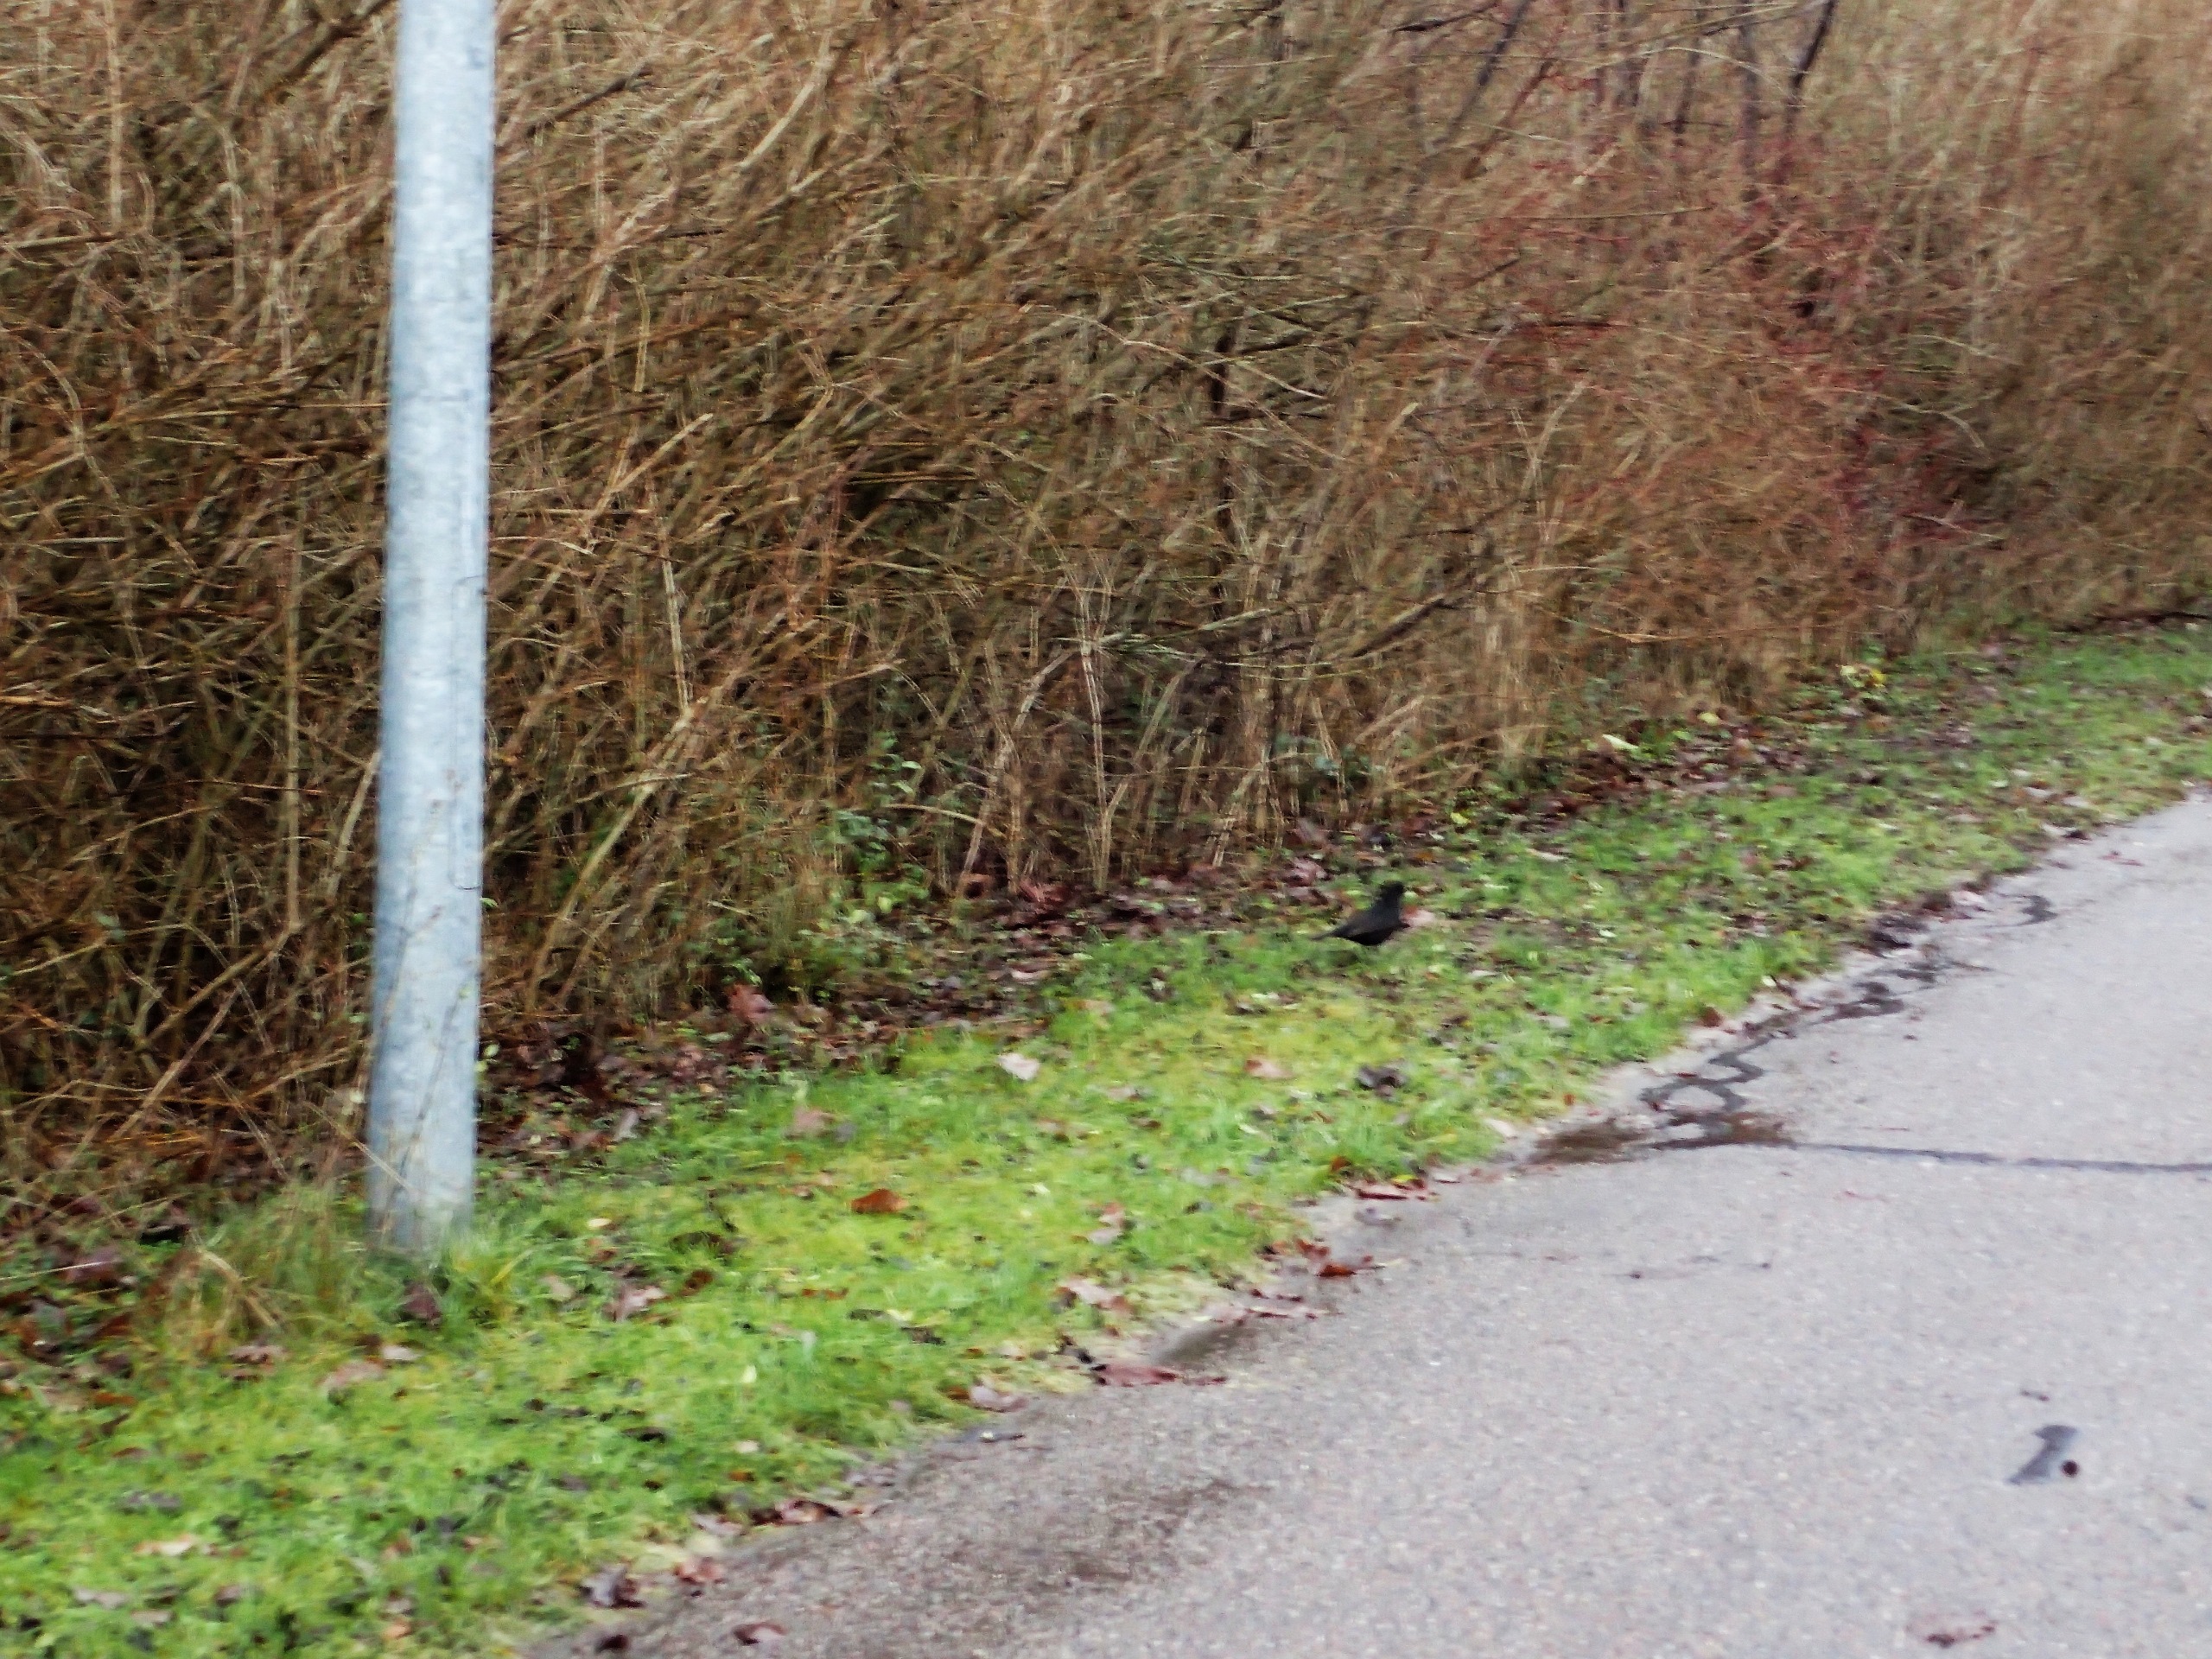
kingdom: Animalia
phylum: Chordata
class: Aves
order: Passeriformes
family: Turdidae
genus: Turdus
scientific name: Turdus merula
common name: Solsort
